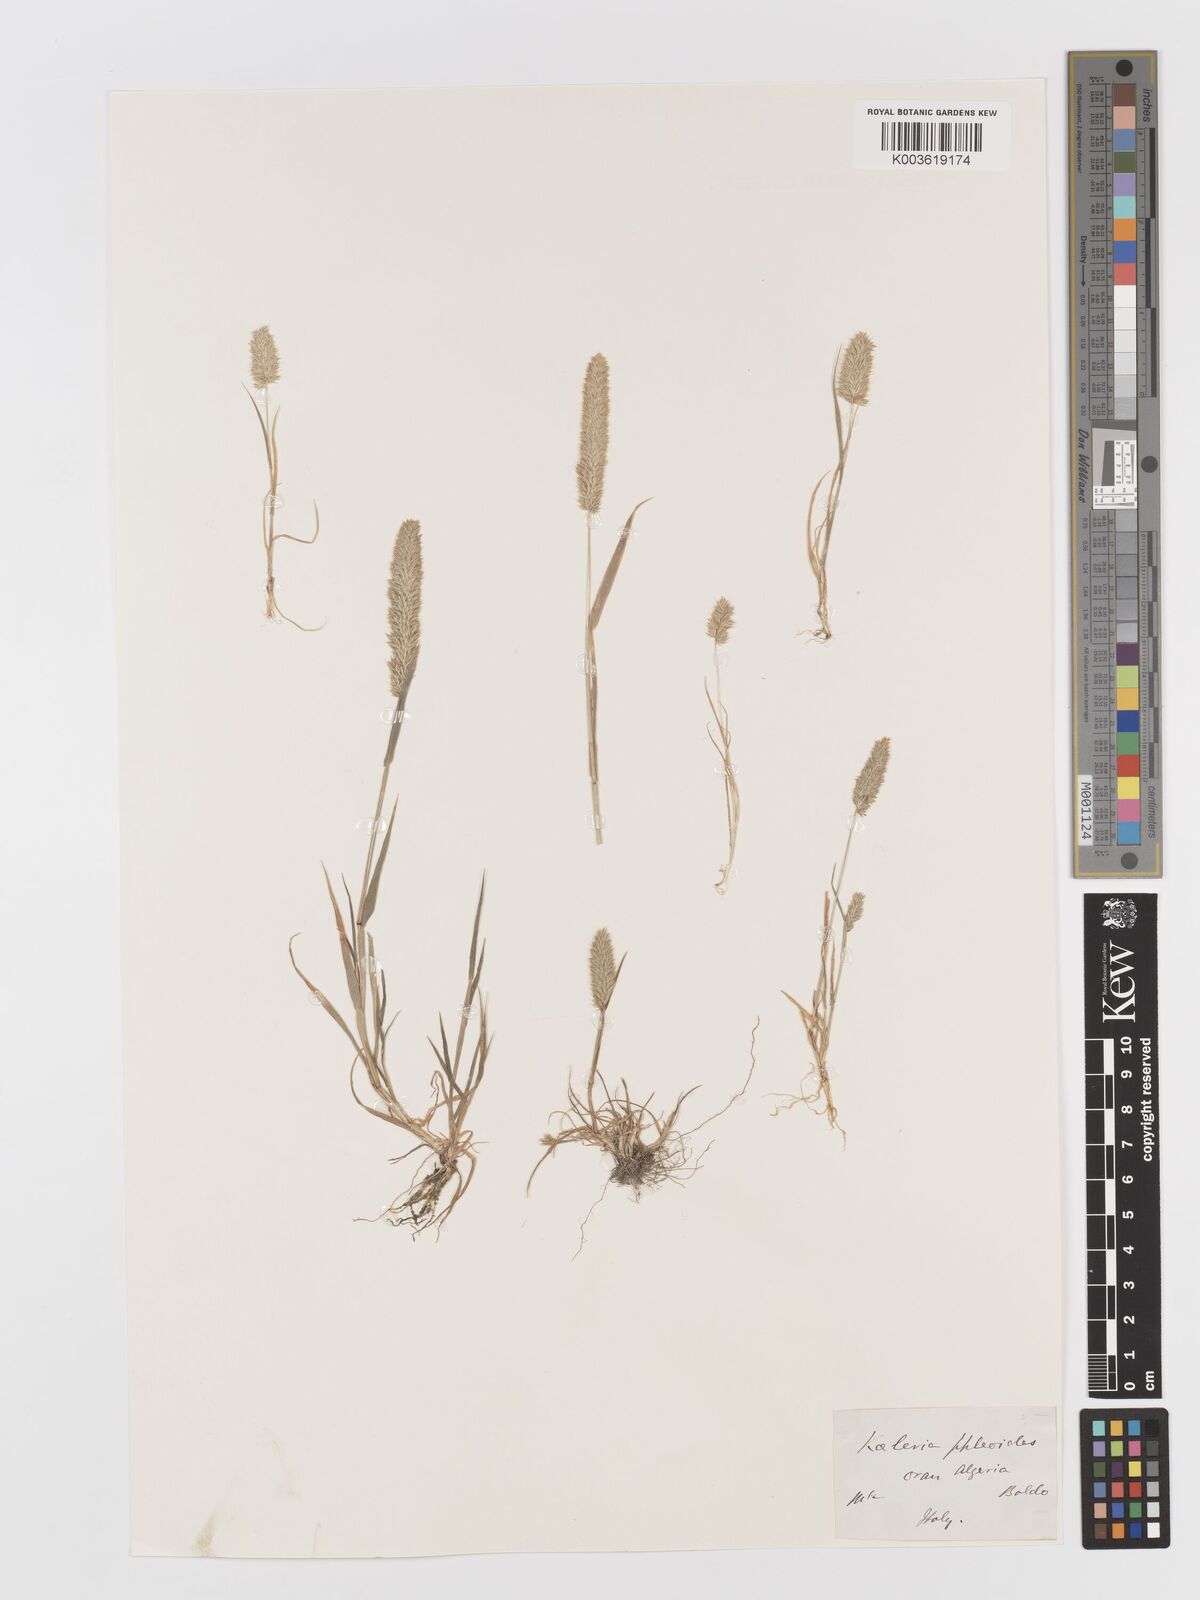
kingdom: Plantae
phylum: Tracheophyta
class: Liliopsida
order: Poales
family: Poaceae
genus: Rostraria
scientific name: Rostraria cristata
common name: Mediterranean hair-grass
